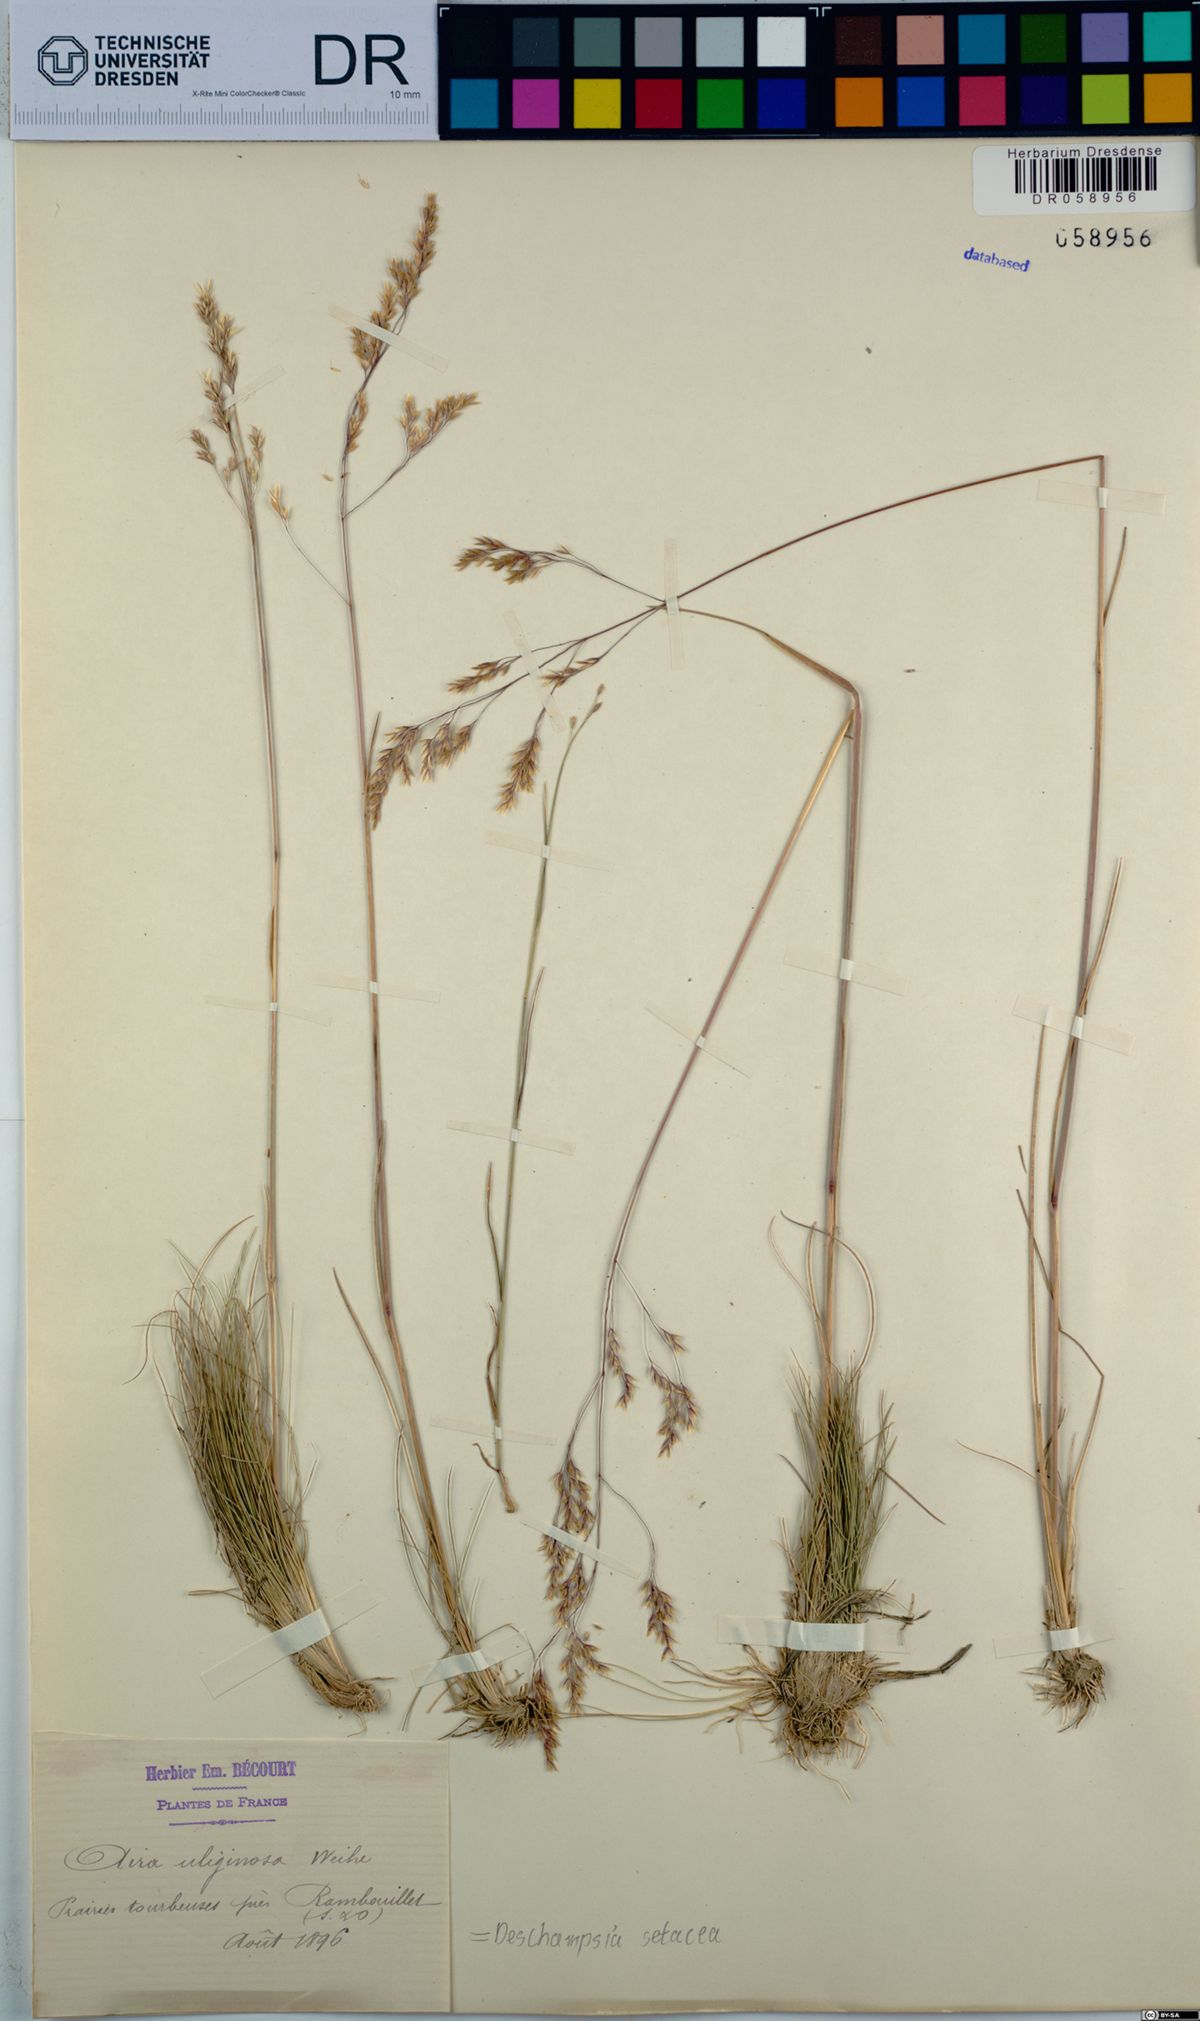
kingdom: Plantae
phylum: Tracheophyta
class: Liliopsida
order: Poales
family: Poaceae
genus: Deschampsia
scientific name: Deschampsia setacea
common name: Bog hair-grass
